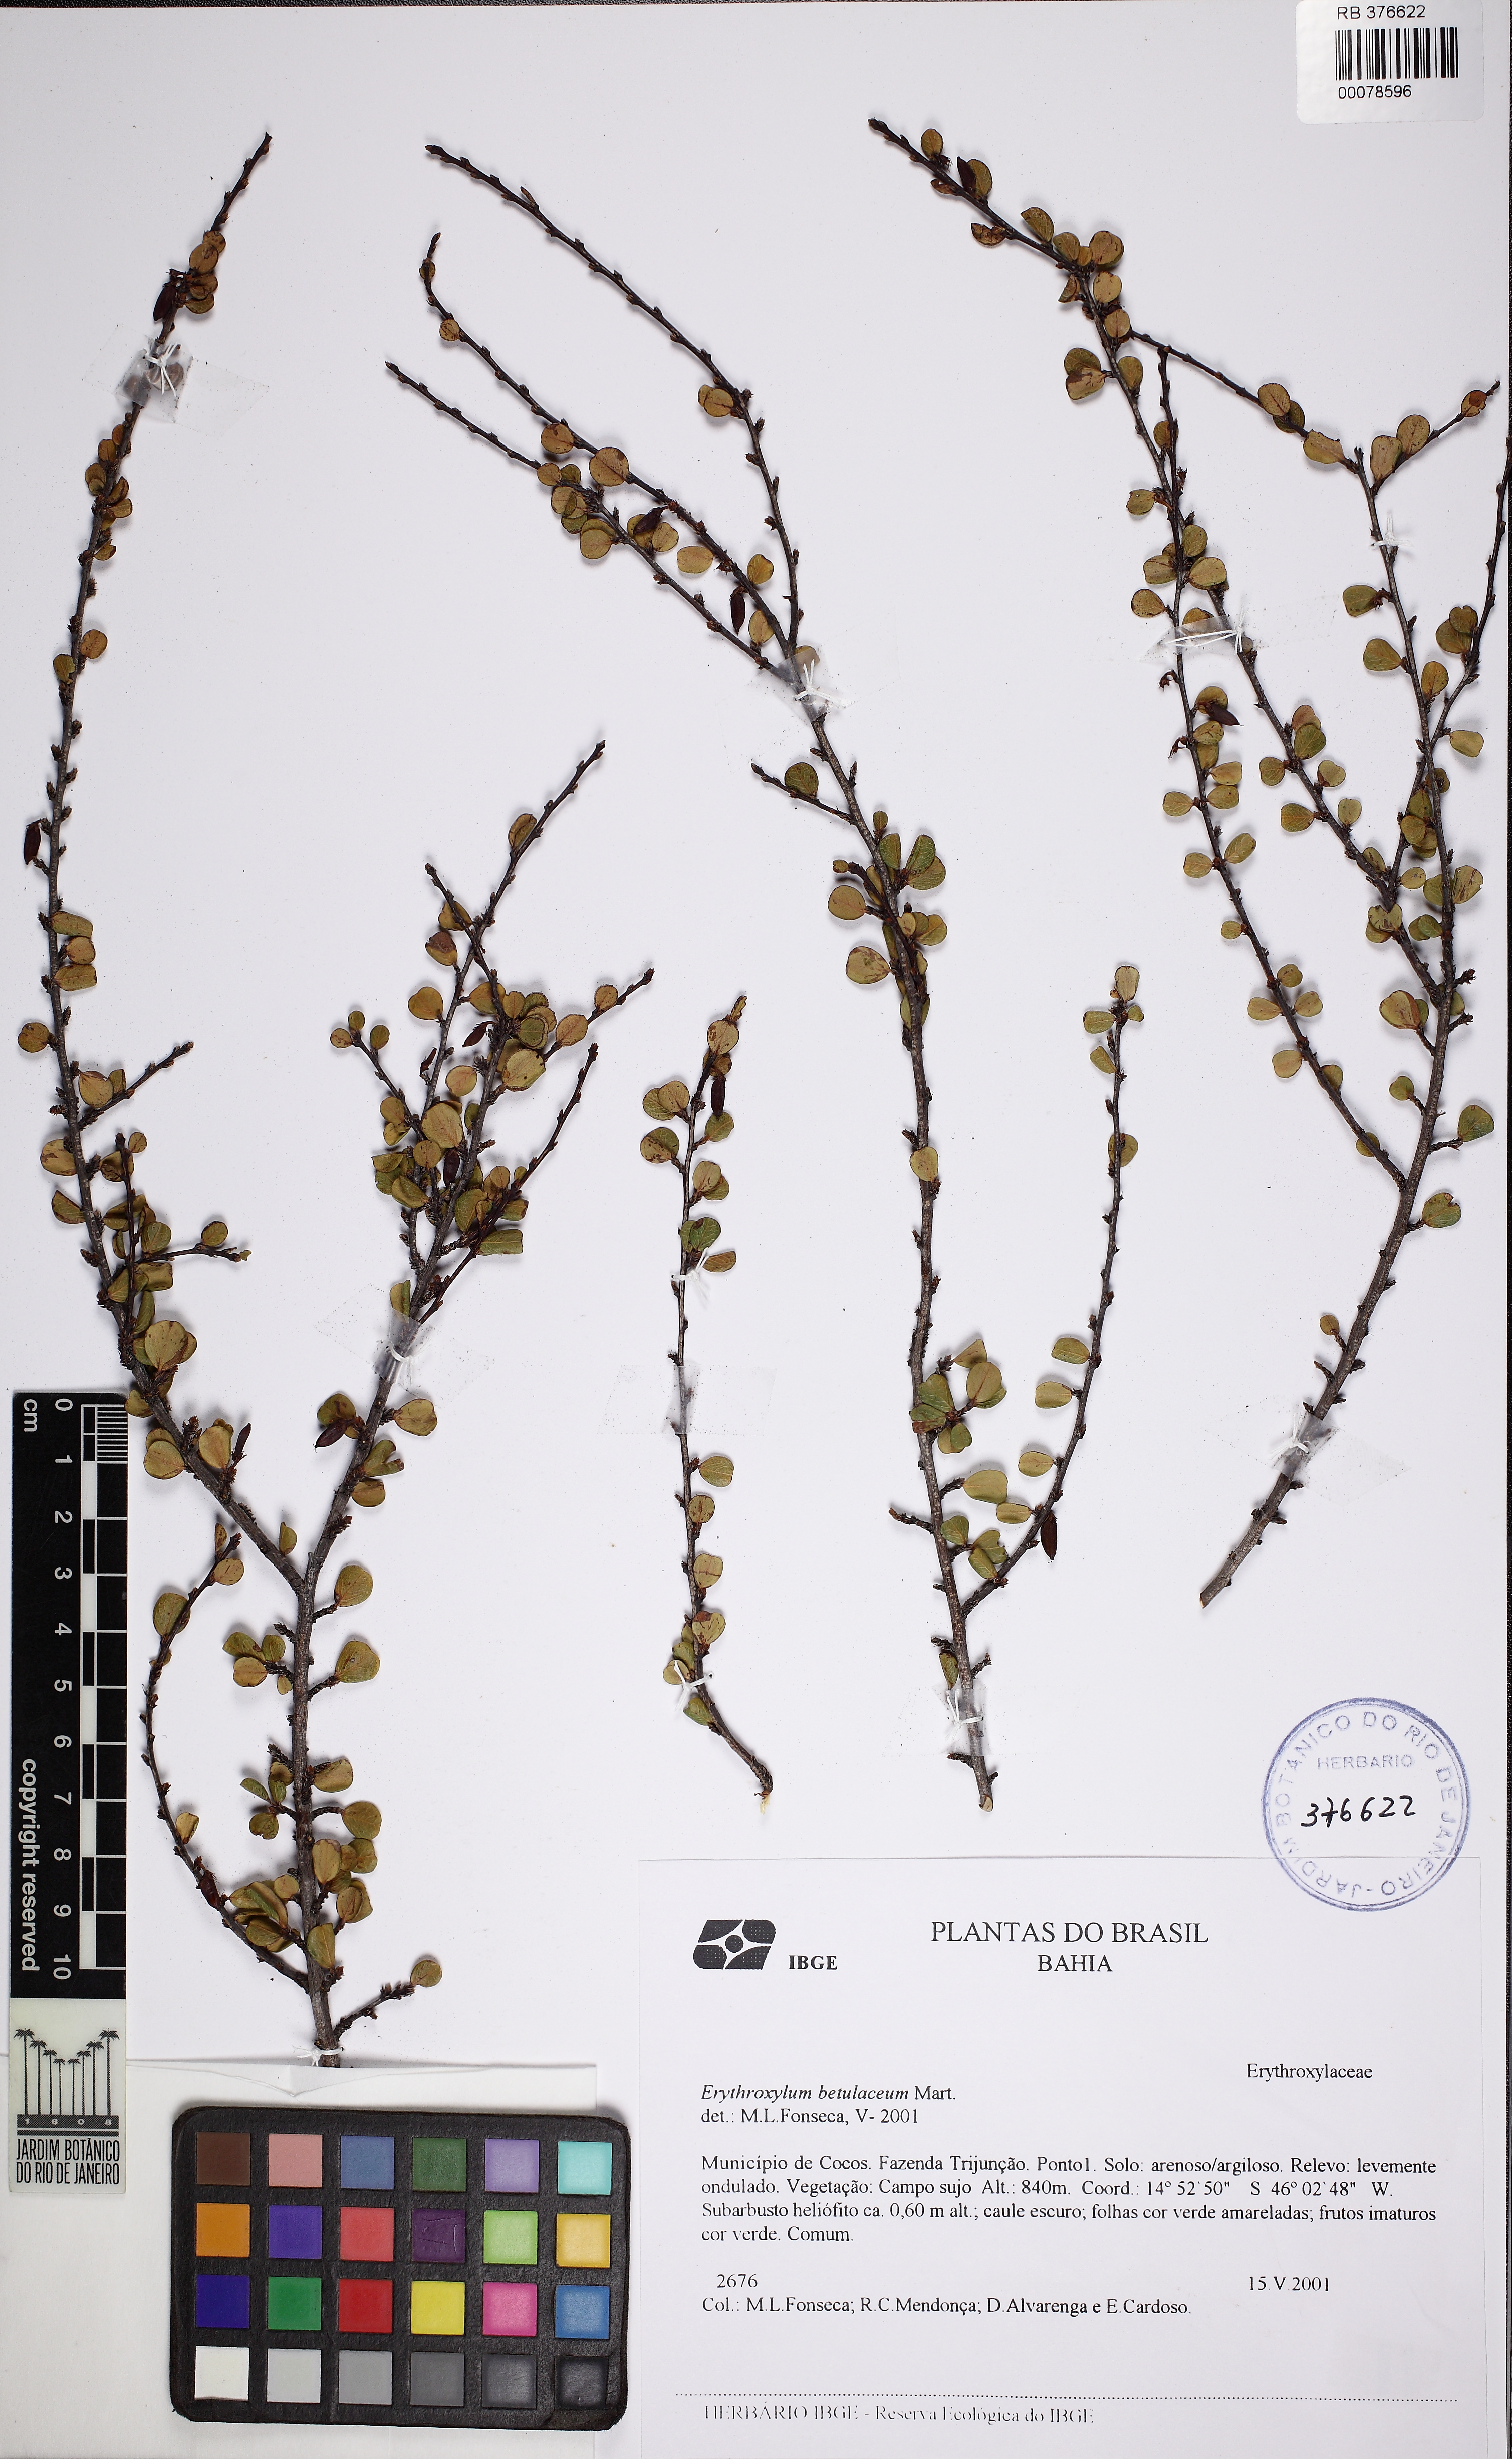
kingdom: Plantae
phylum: Tracheophyta
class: Magnoliopsida
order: Malpighiales
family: Erythroxylaceae
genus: Erythroxylum
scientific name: Erythroxylum betulaceum
